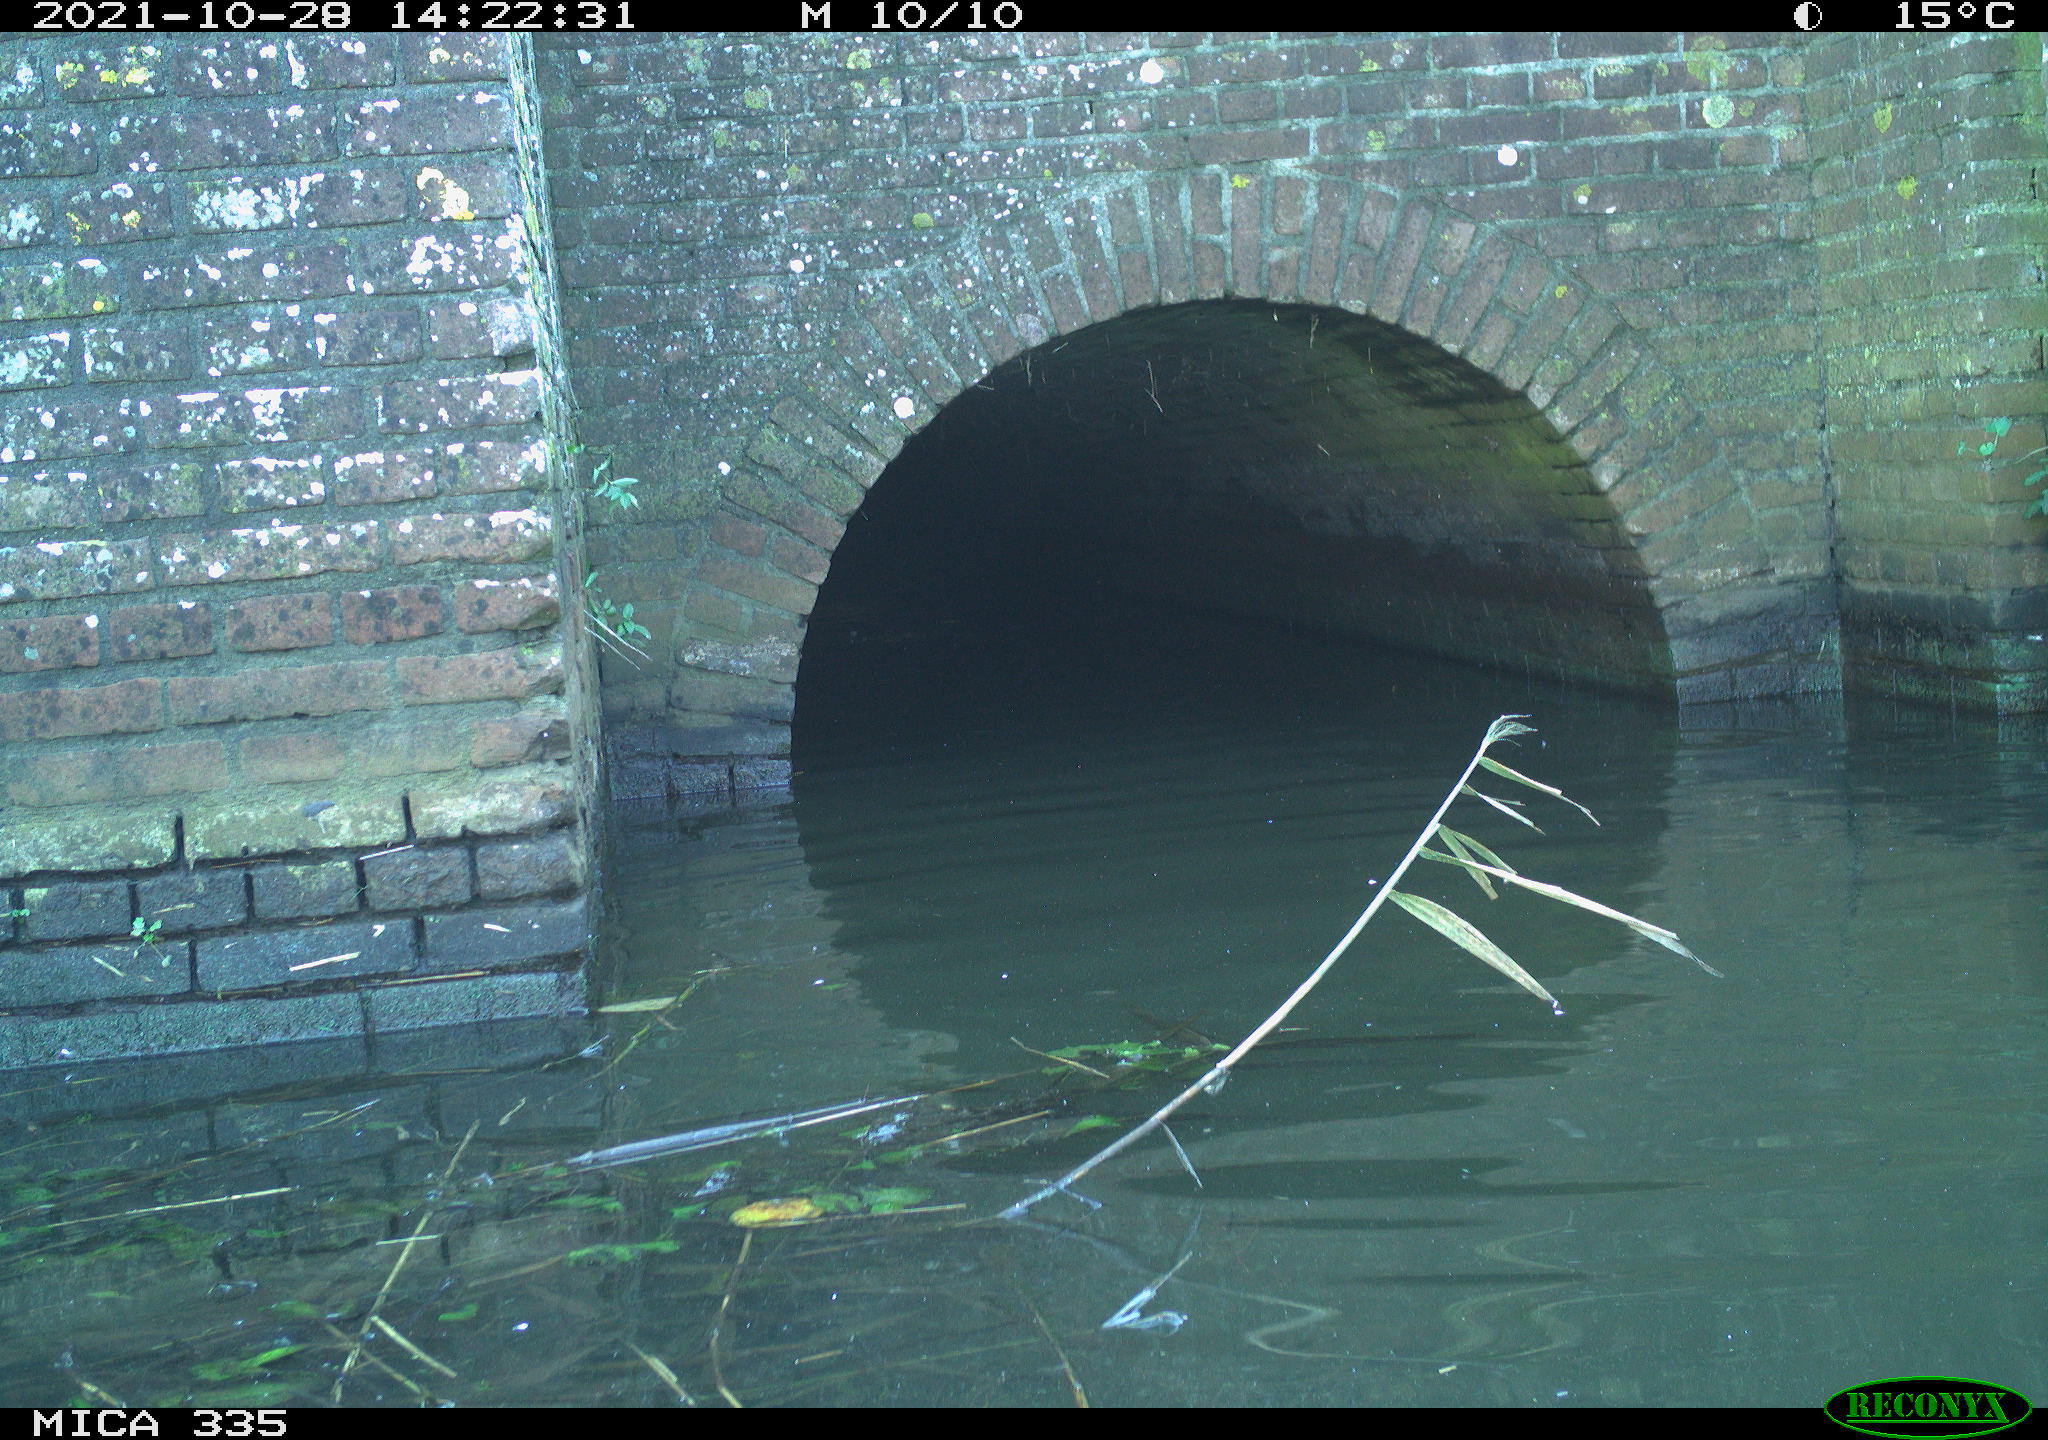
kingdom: Animalia
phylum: Chordata
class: Aves
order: Anseriformes
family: Anatidae
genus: Anas
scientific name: Anas platyrhynchos
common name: Mallard
